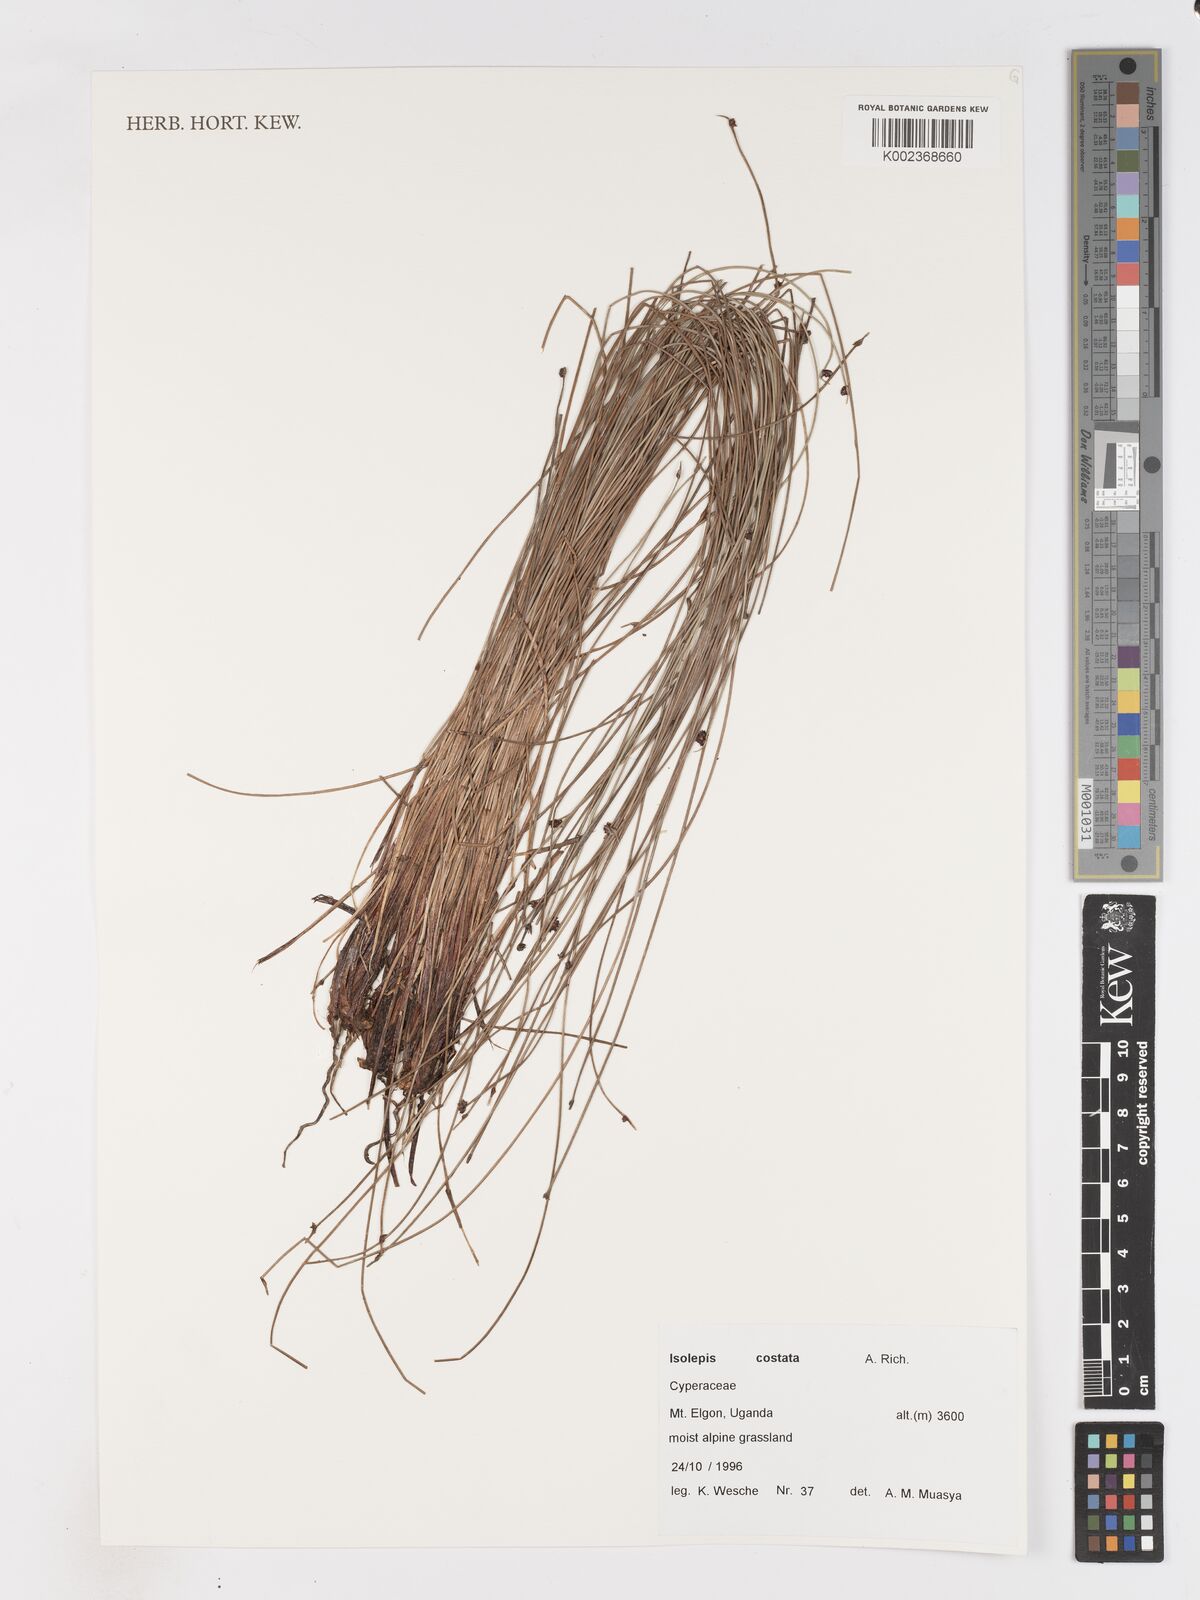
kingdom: Plantae
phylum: Tracheophyta
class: Liliopsida
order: Poales
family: Cyperaceae
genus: Isolepis
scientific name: Isolepis costata
